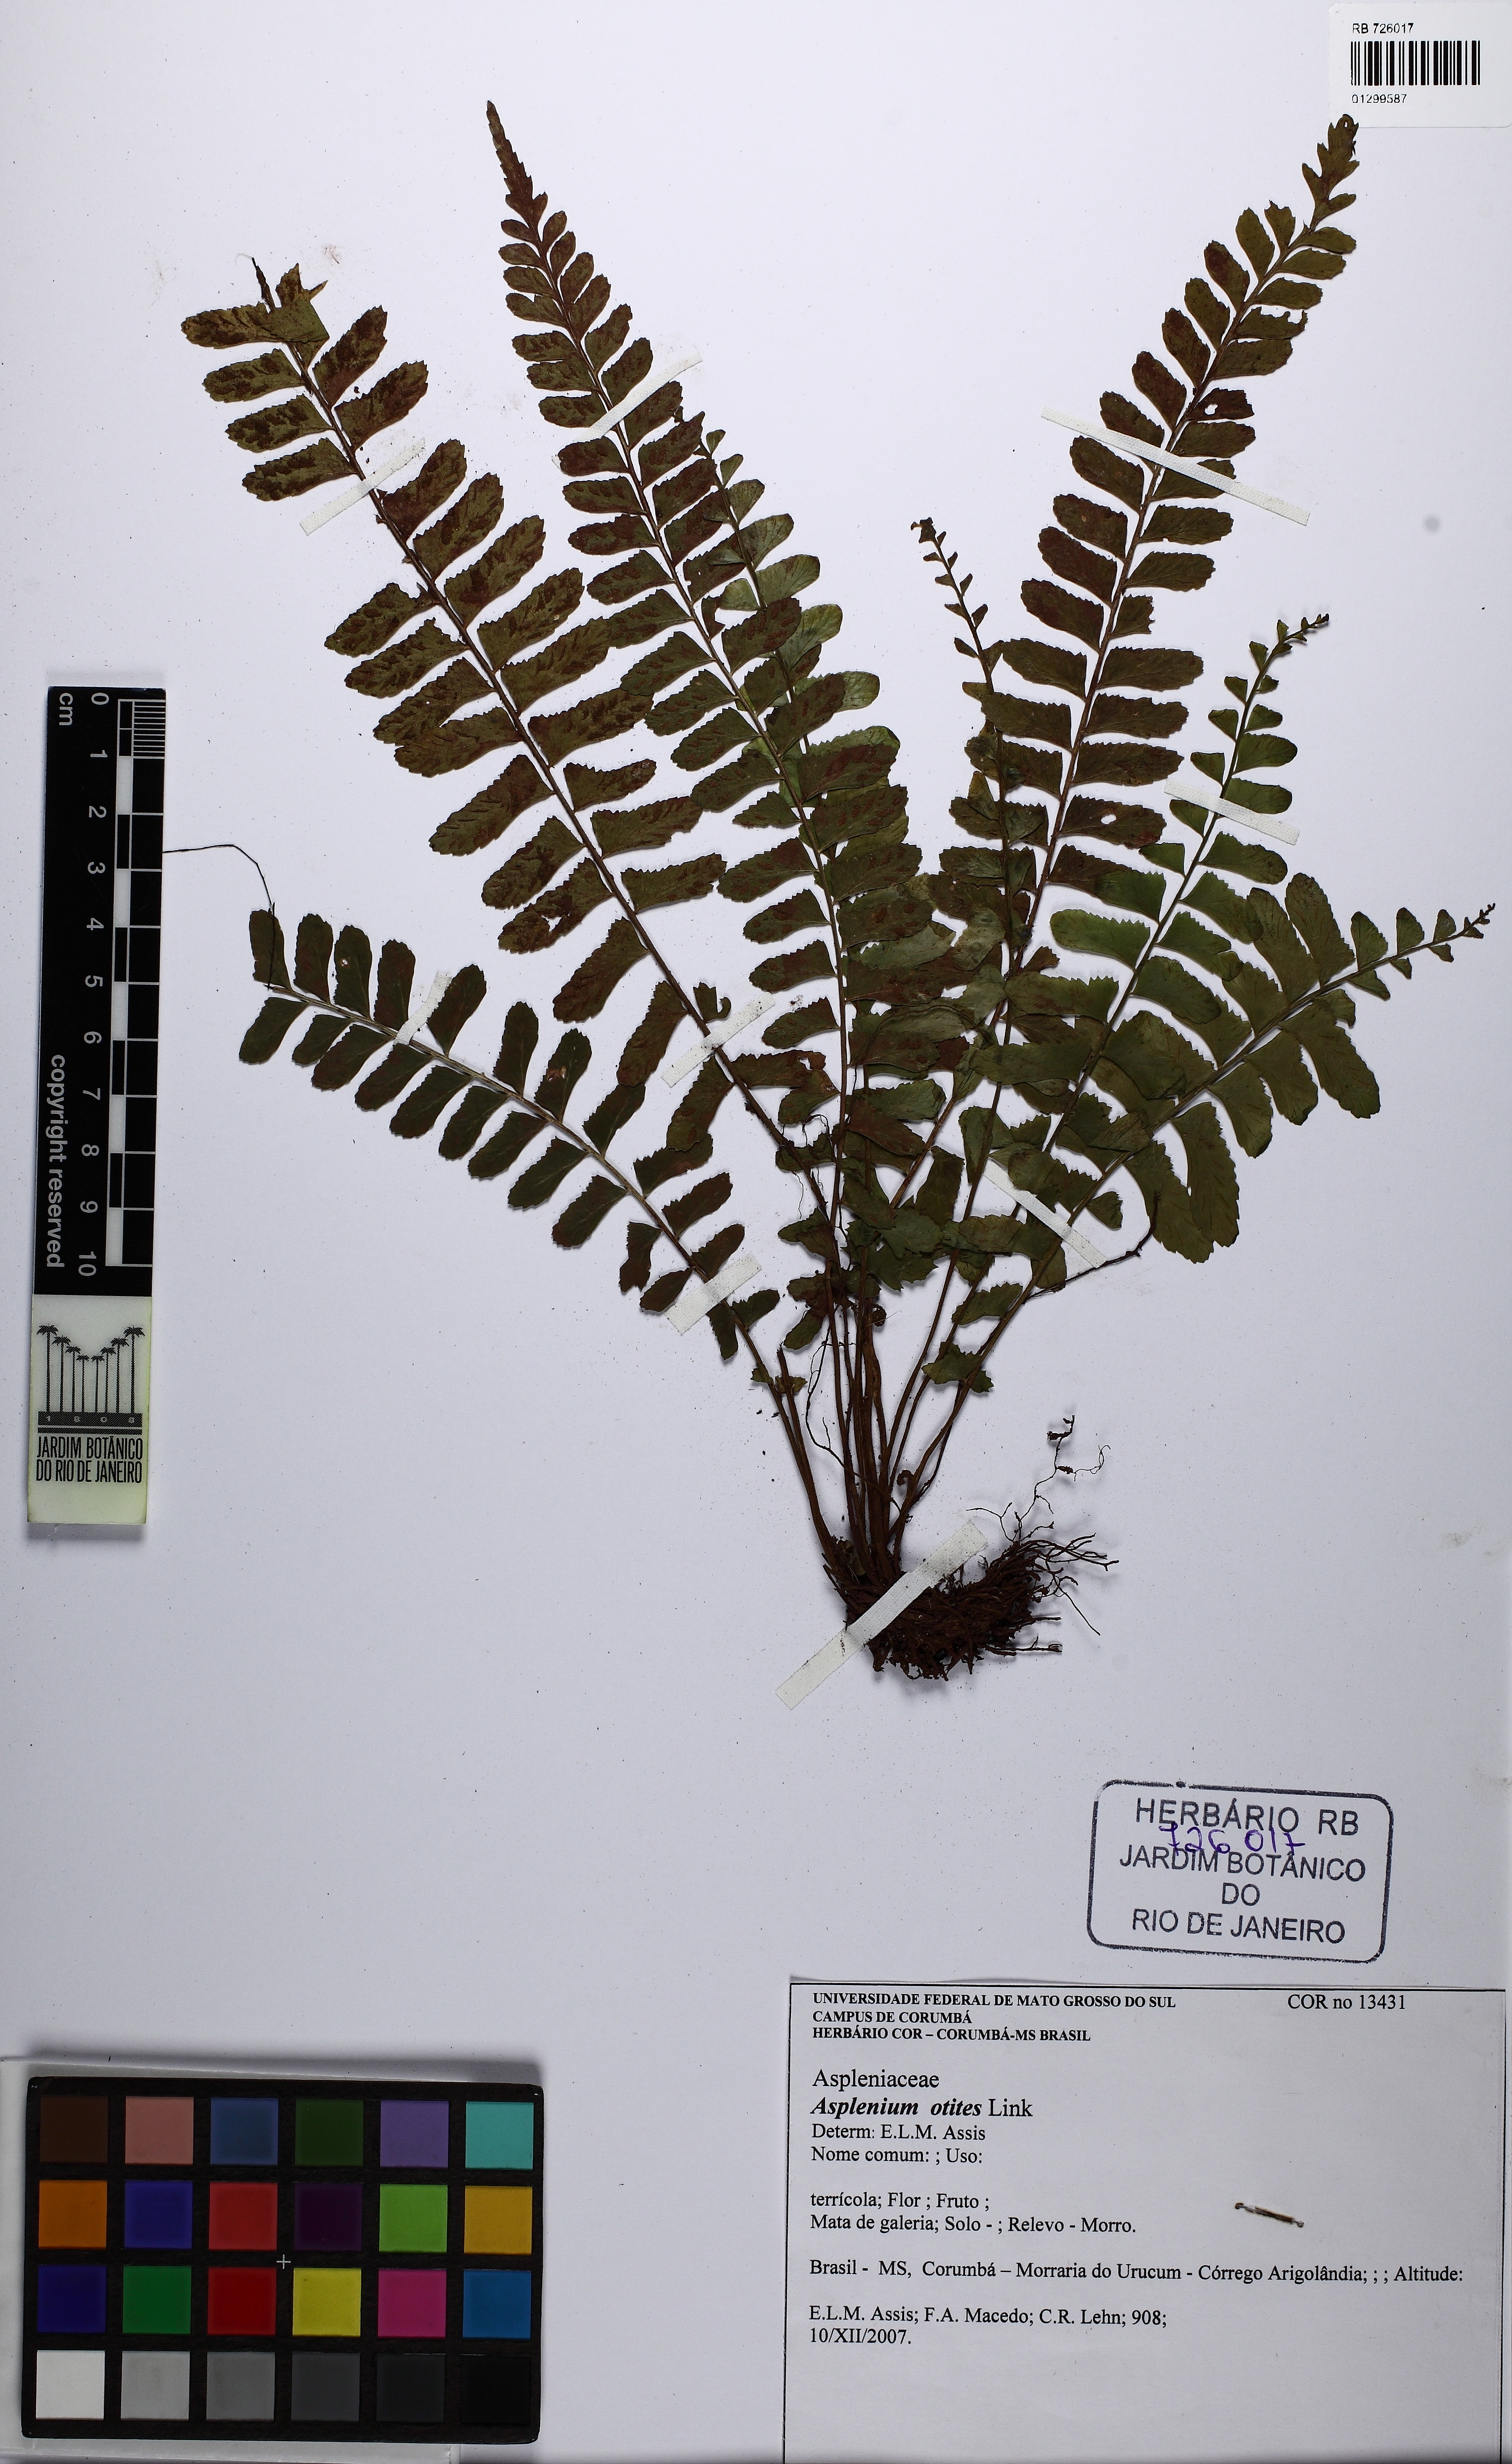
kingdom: Plantae
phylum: Tracheophyta
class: Polypodiopsida
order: Polypodiales
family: Aspleniaceae
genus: Asplenium
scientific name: Asplenium otites
